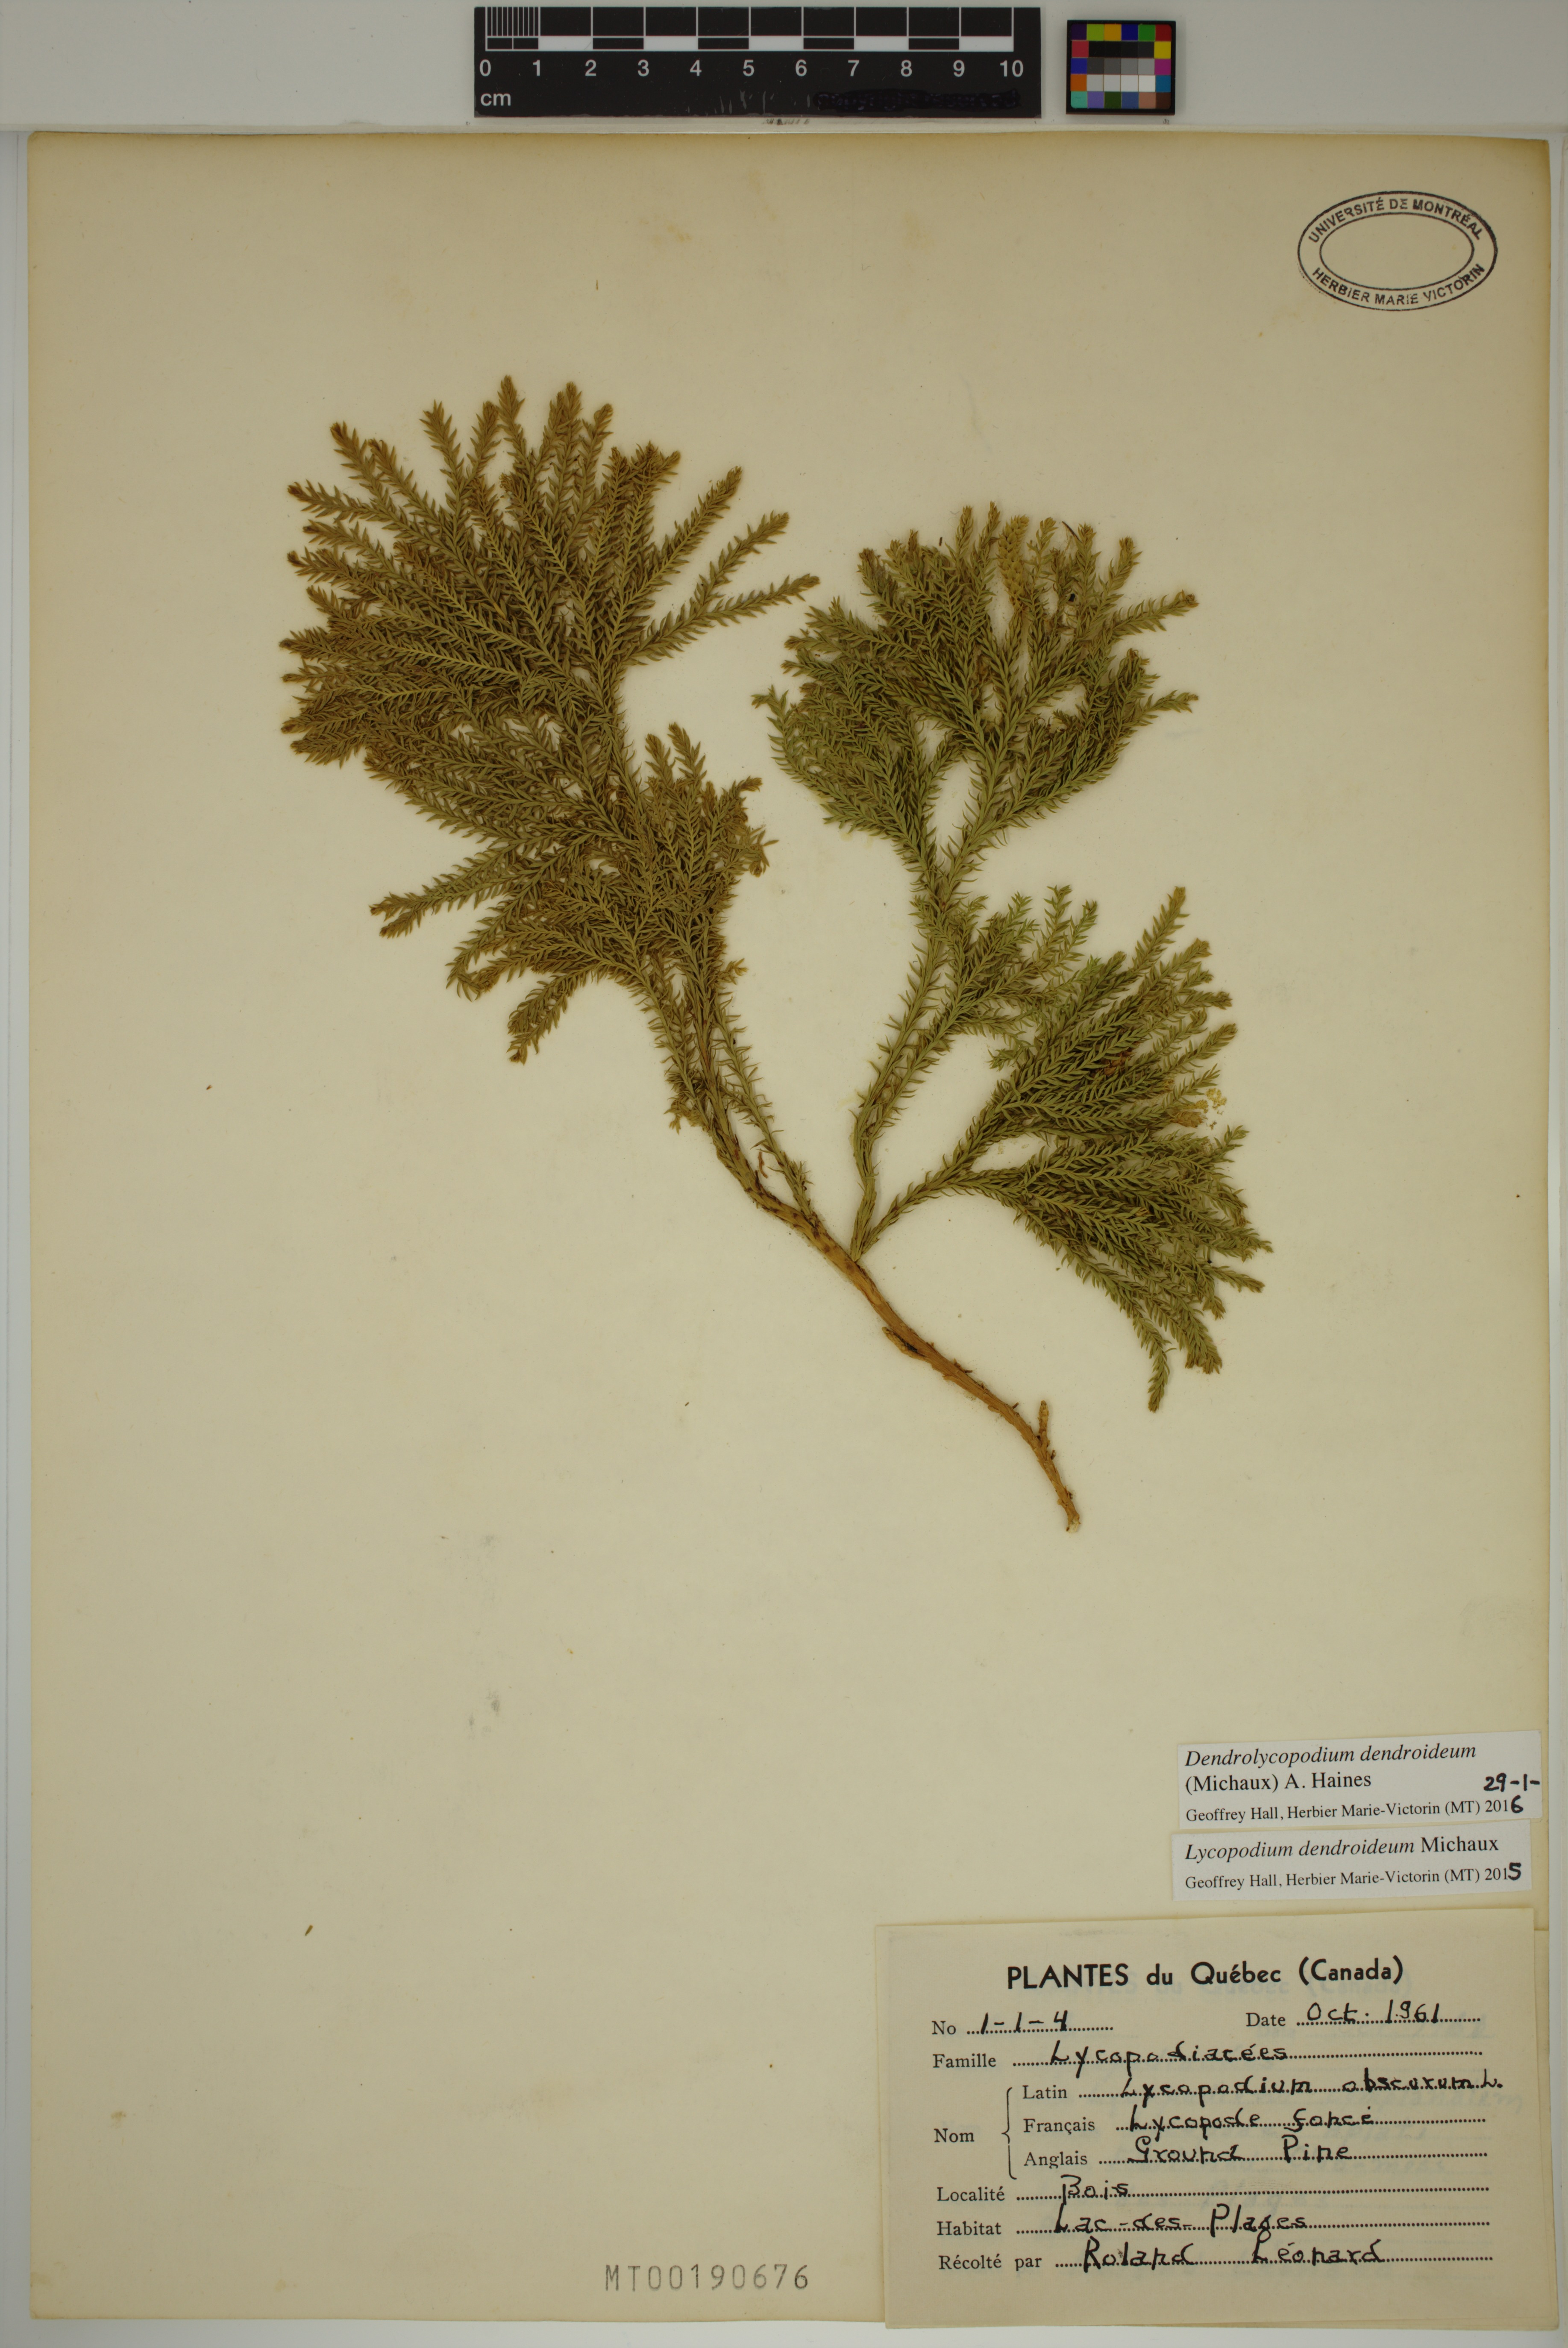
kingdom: Plantae
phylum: Tracheophyta
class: Lycopodiopsida
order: Lycopodiales
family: Lycopodiaceae
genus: Dendrolycopodium
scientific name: Dendrolycopodium dendroideum
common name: Northern tree-clubmoss
